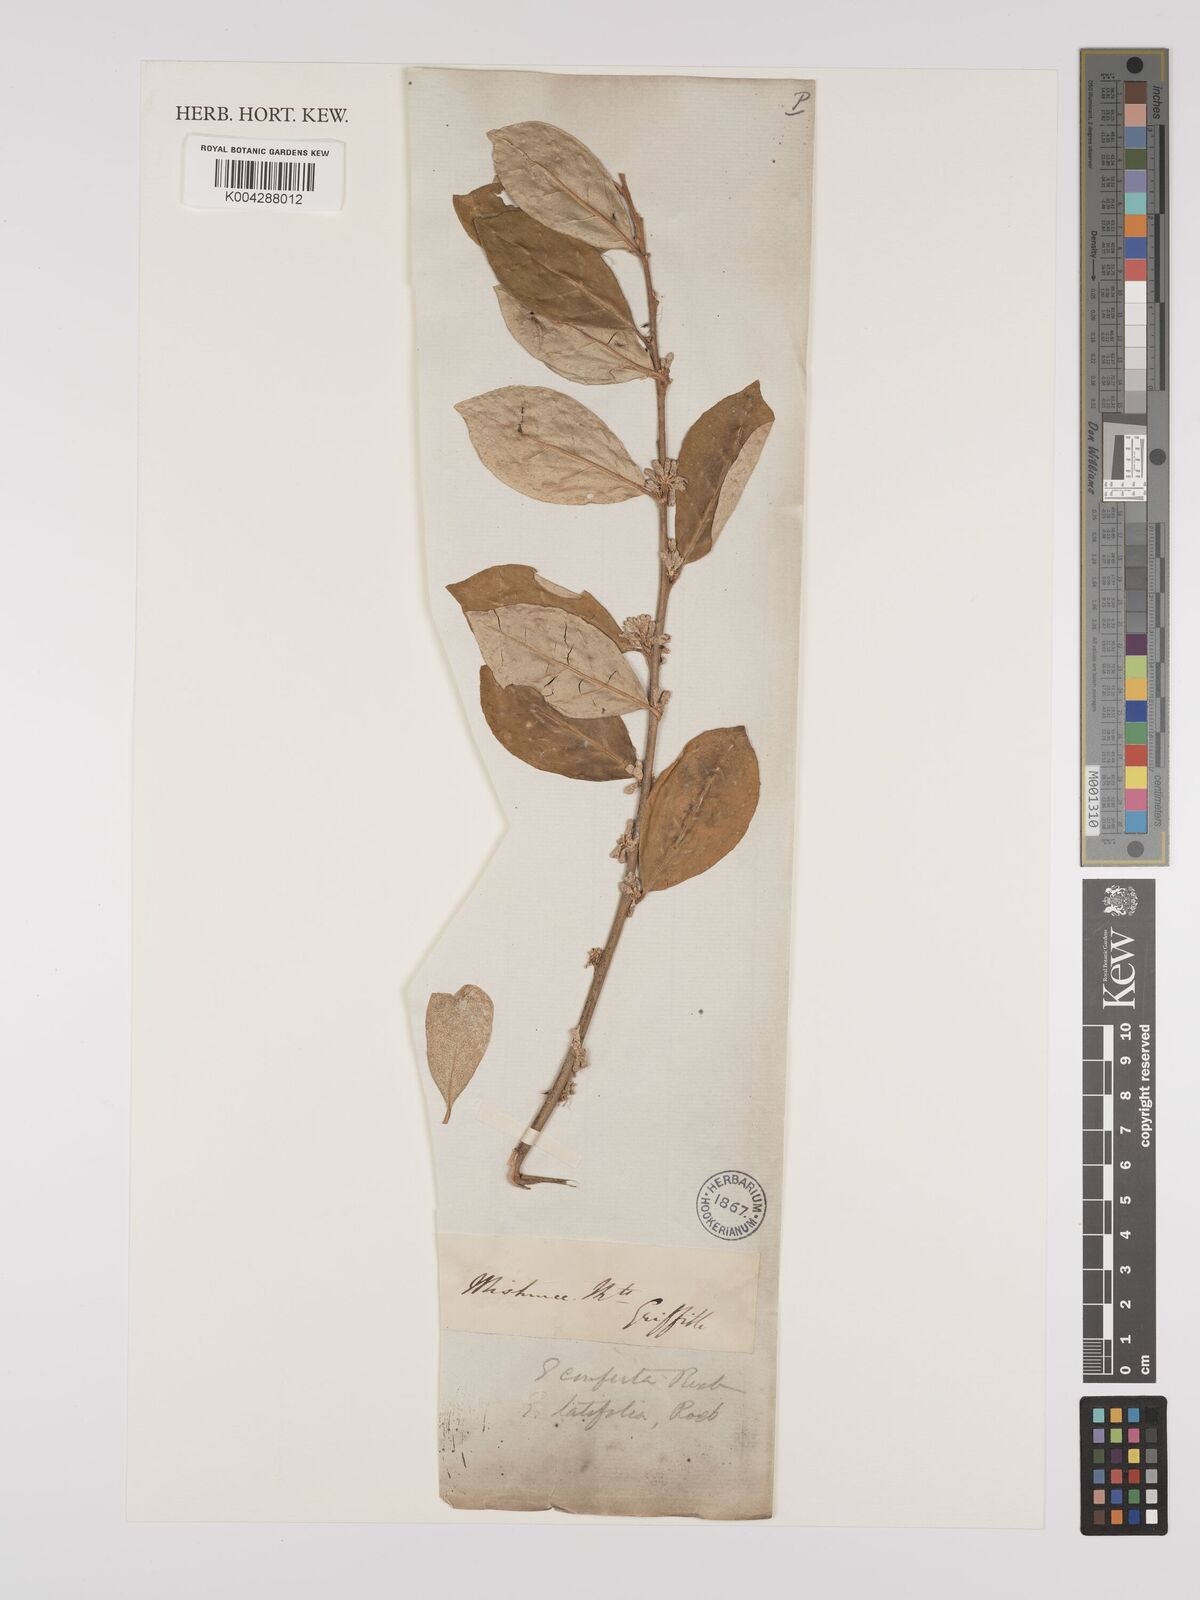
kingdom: Plantae
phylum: Tracheophyta
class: Magnoliopsida
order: Rosales
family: Elaeagnaceae
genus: Elaeagnus
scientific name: Elaeagnus latifolia
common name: Oleaster
